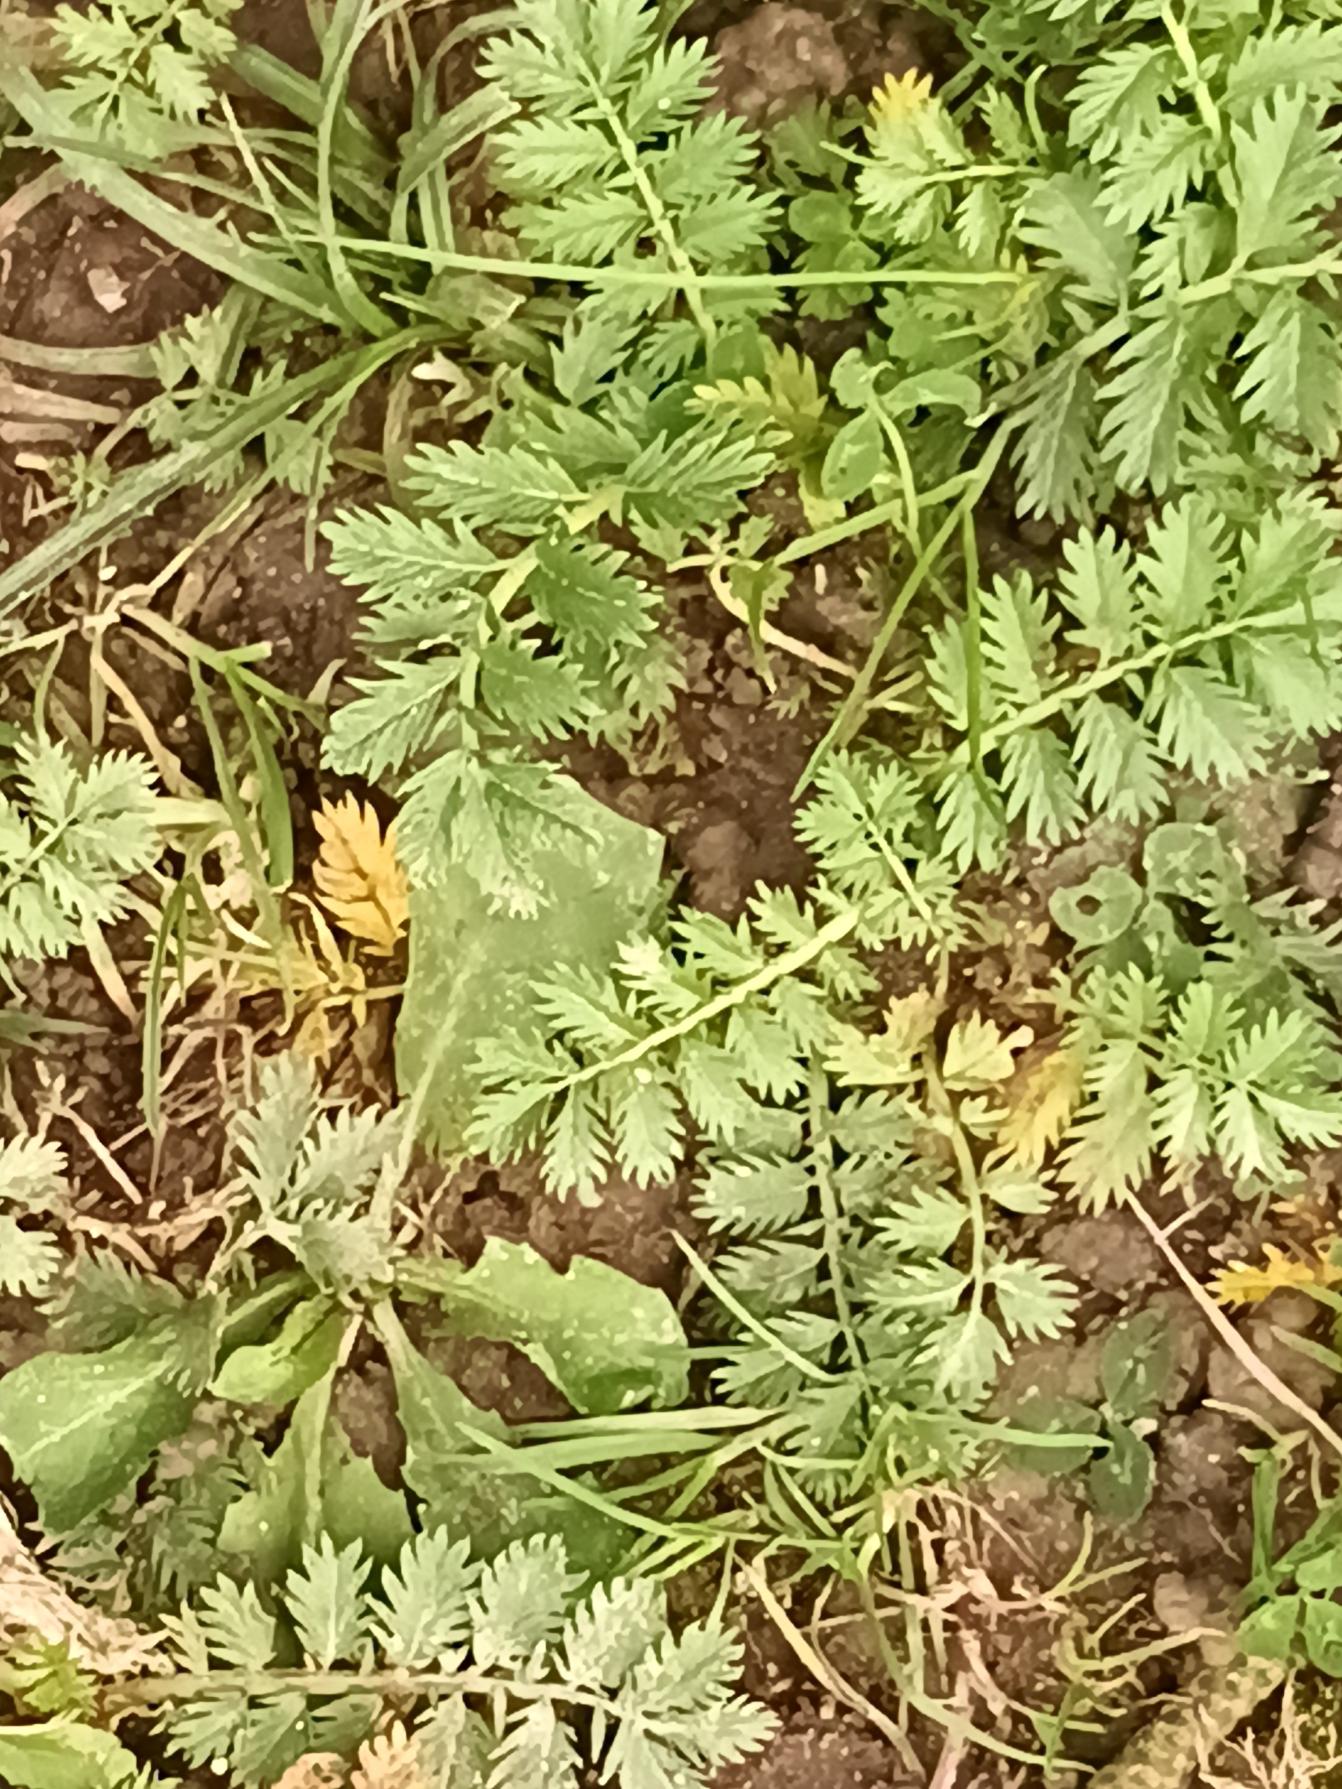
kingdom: Plantae
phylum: Tracheophyta
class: Magnoliopsida
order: Rosales
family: Rosaceae
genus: Argentina
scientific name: Argentina anserina
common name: Gåsepotentil
